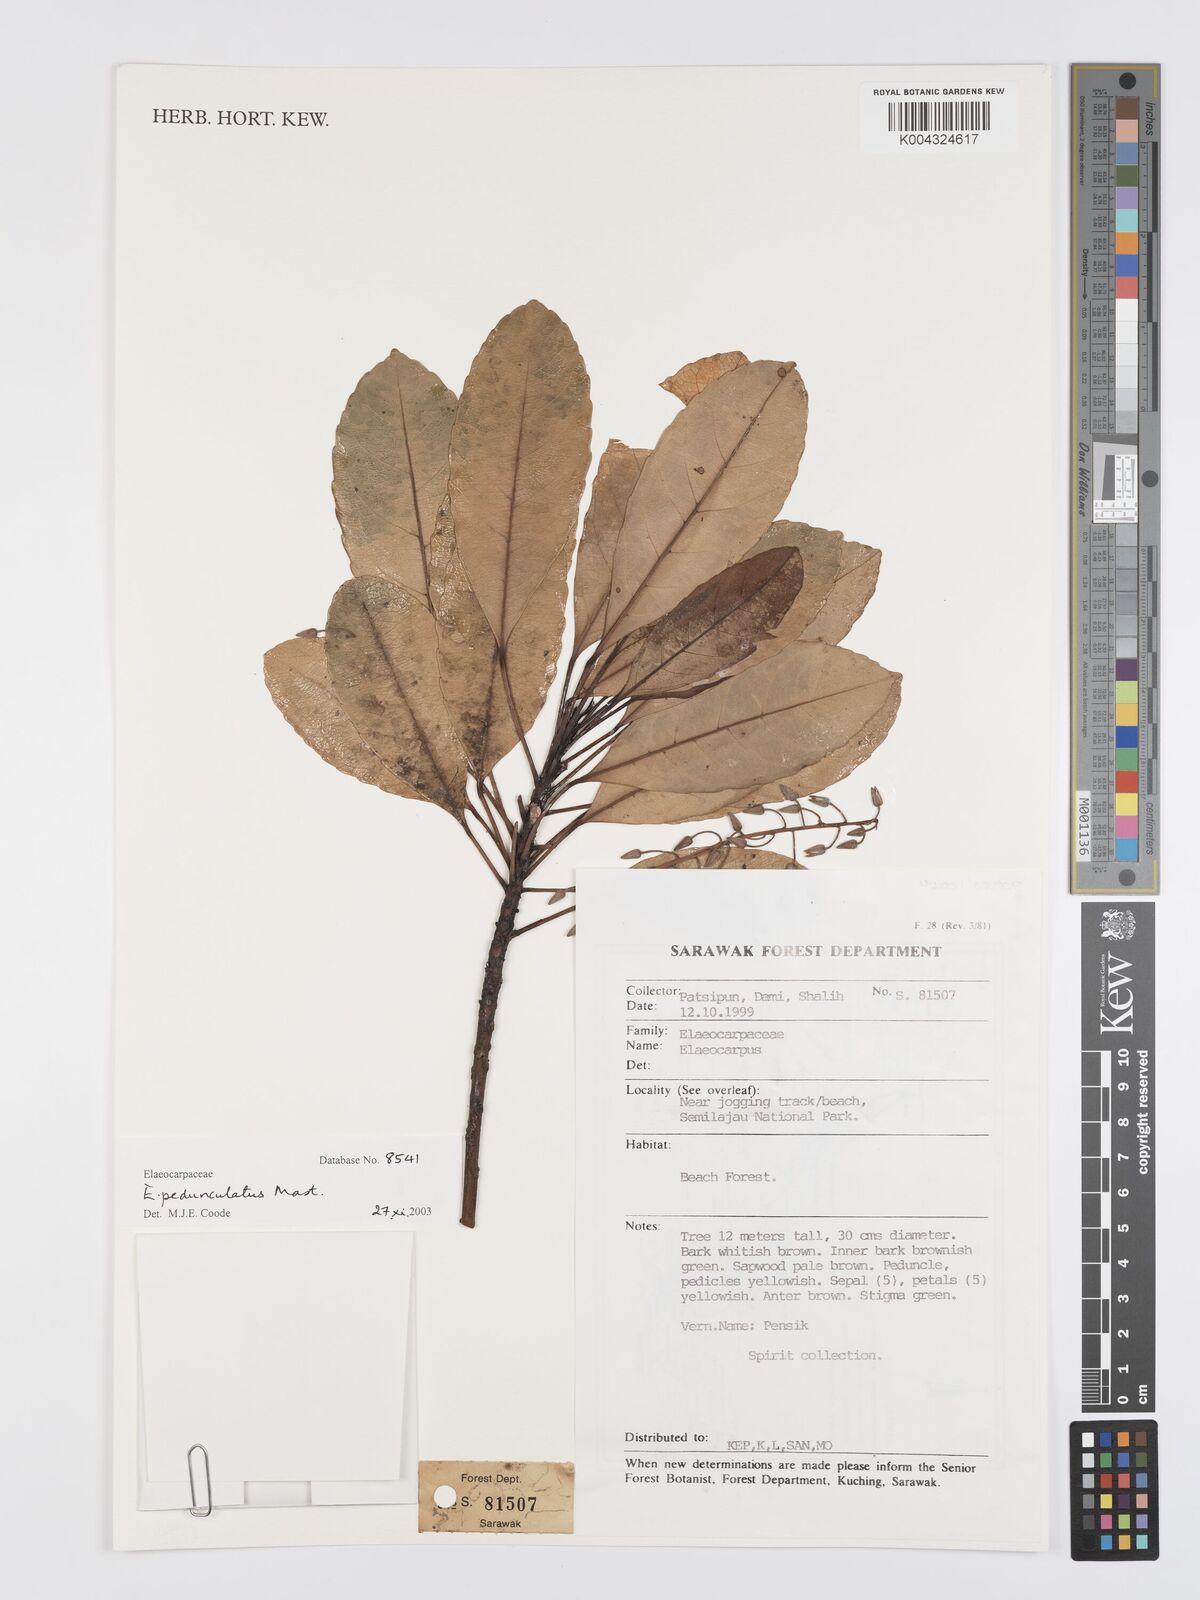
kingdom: Plantae
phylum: Tracheophyta
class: Magnoliopsida
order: Oxalidales
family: Elaeocarpaceae
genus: Elaeocarpus
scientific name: Elaeocarpus pedunculatus
